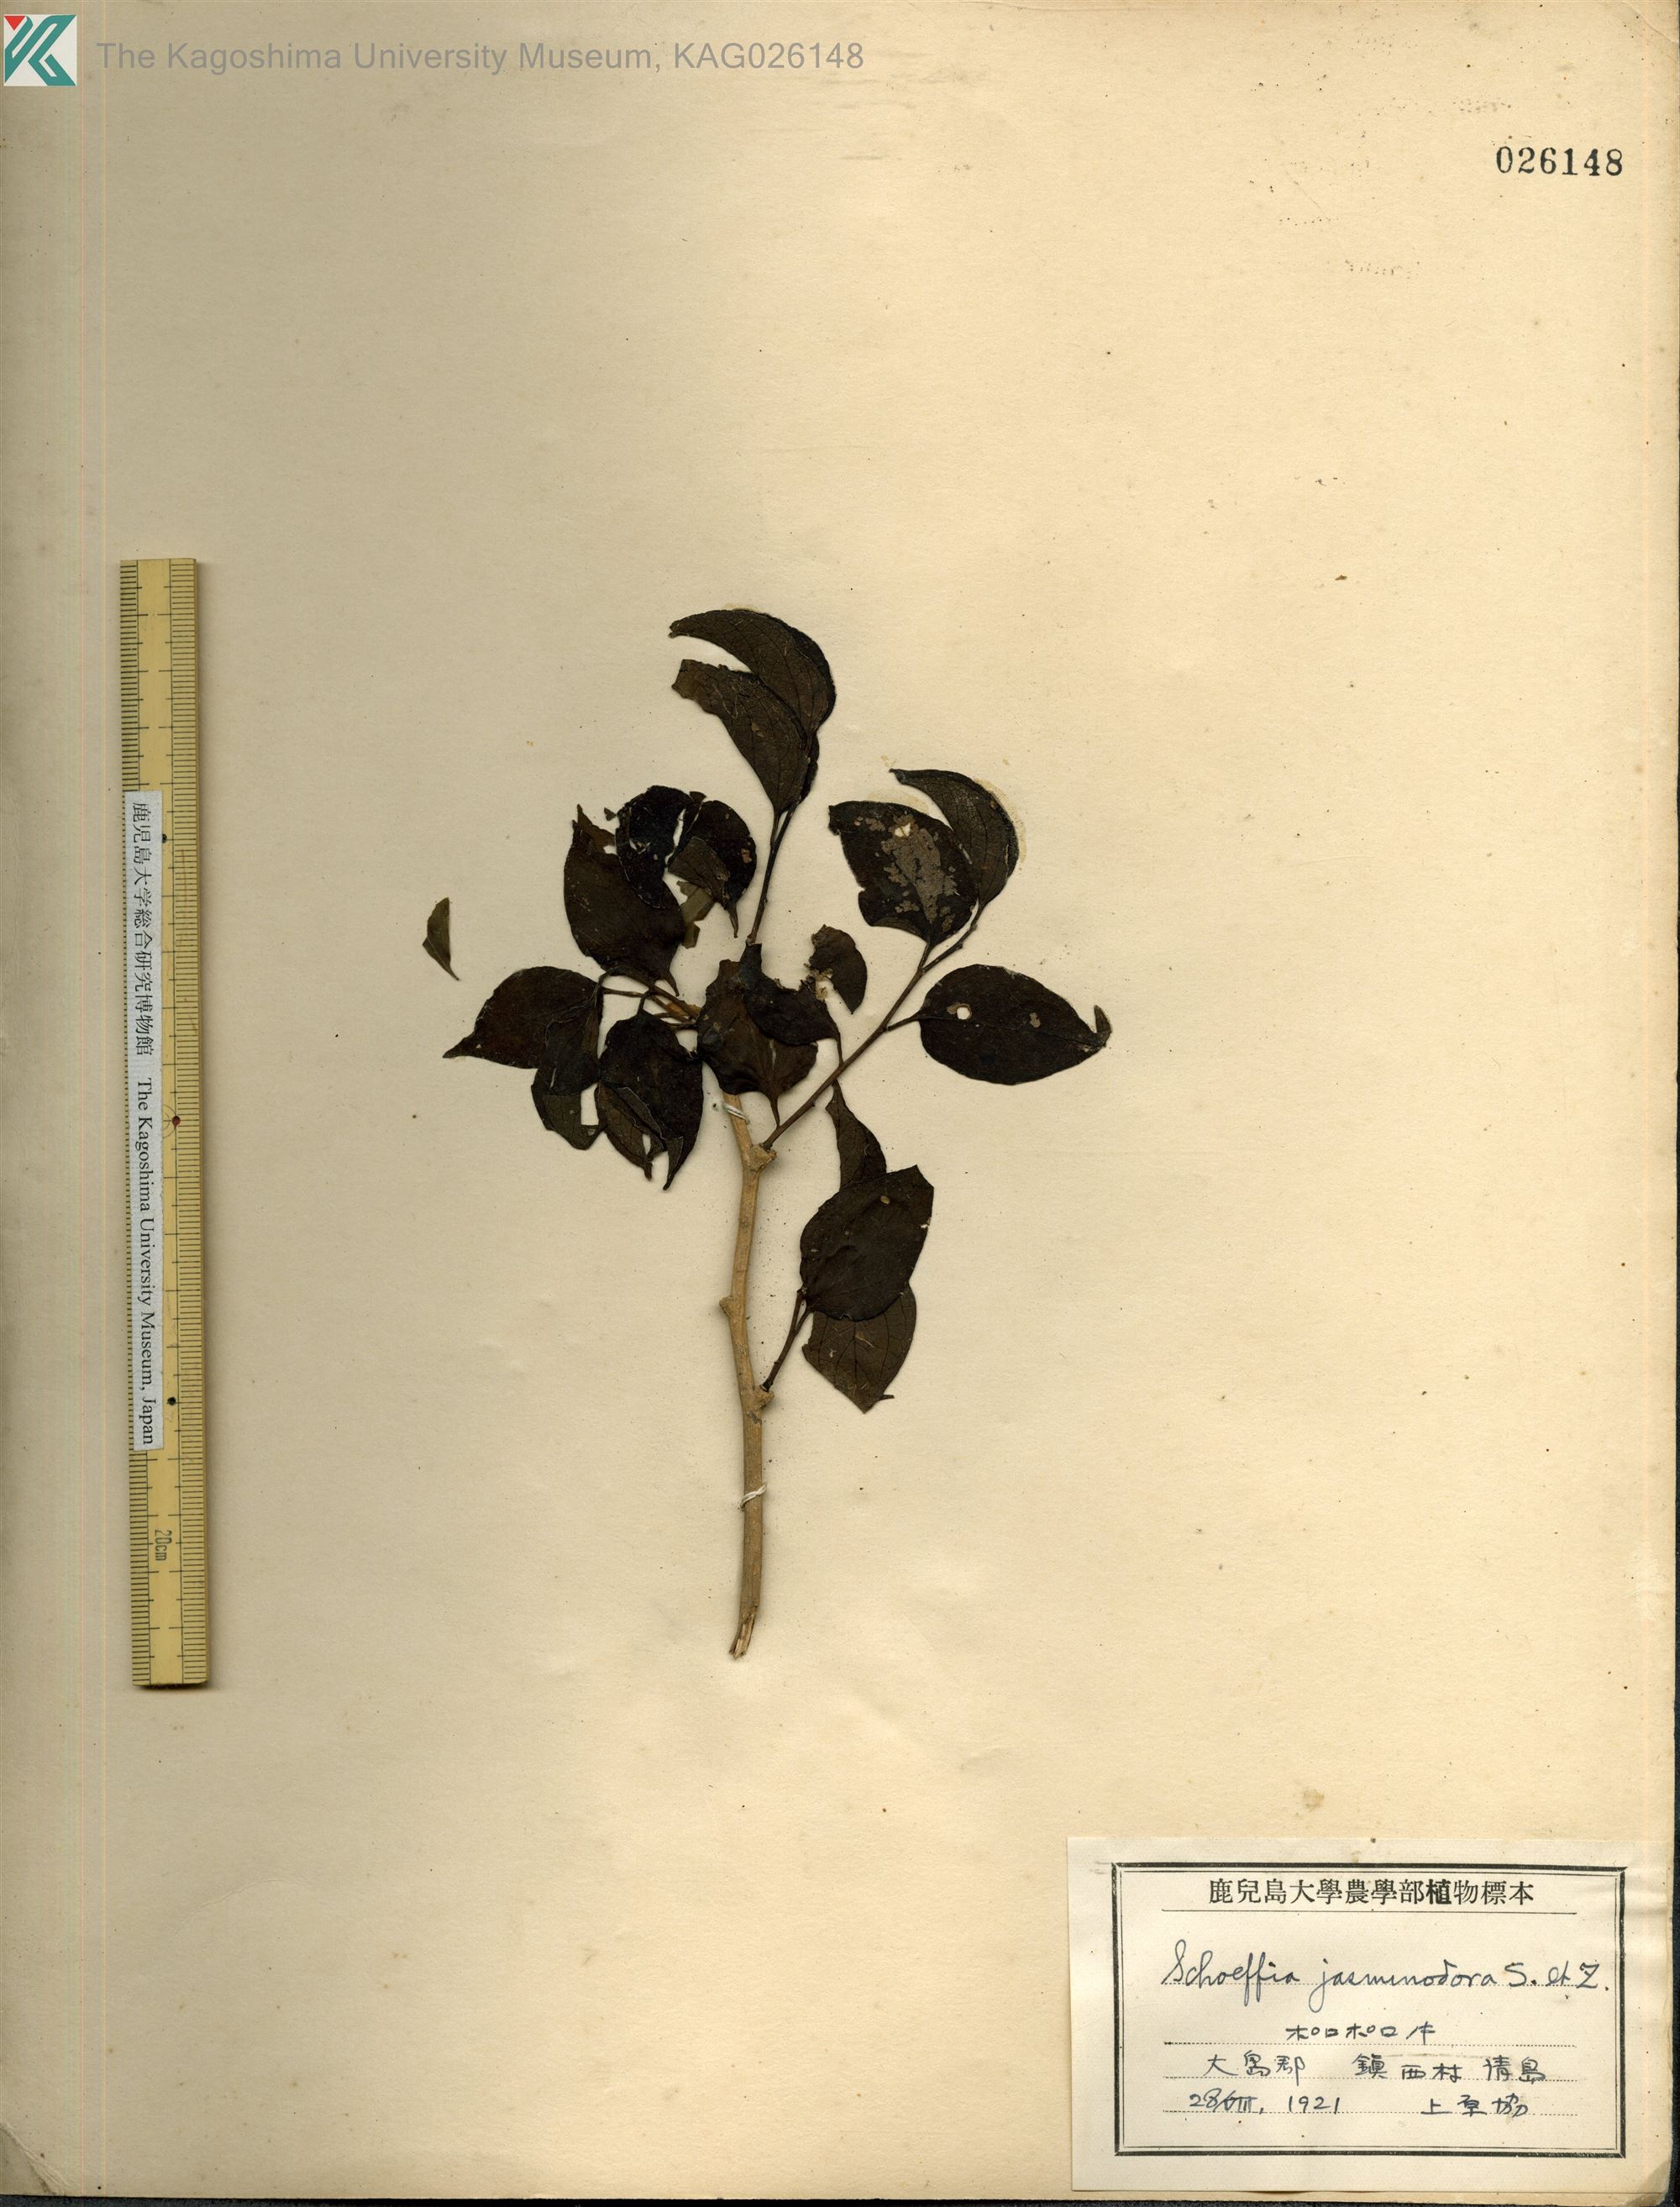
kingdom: Plantae
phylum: Tracheophyta
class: Magnoliopsida
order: Santalales
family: Schoepfiaceae
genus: Schoepfia
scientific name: Schoepfia jasminodora
